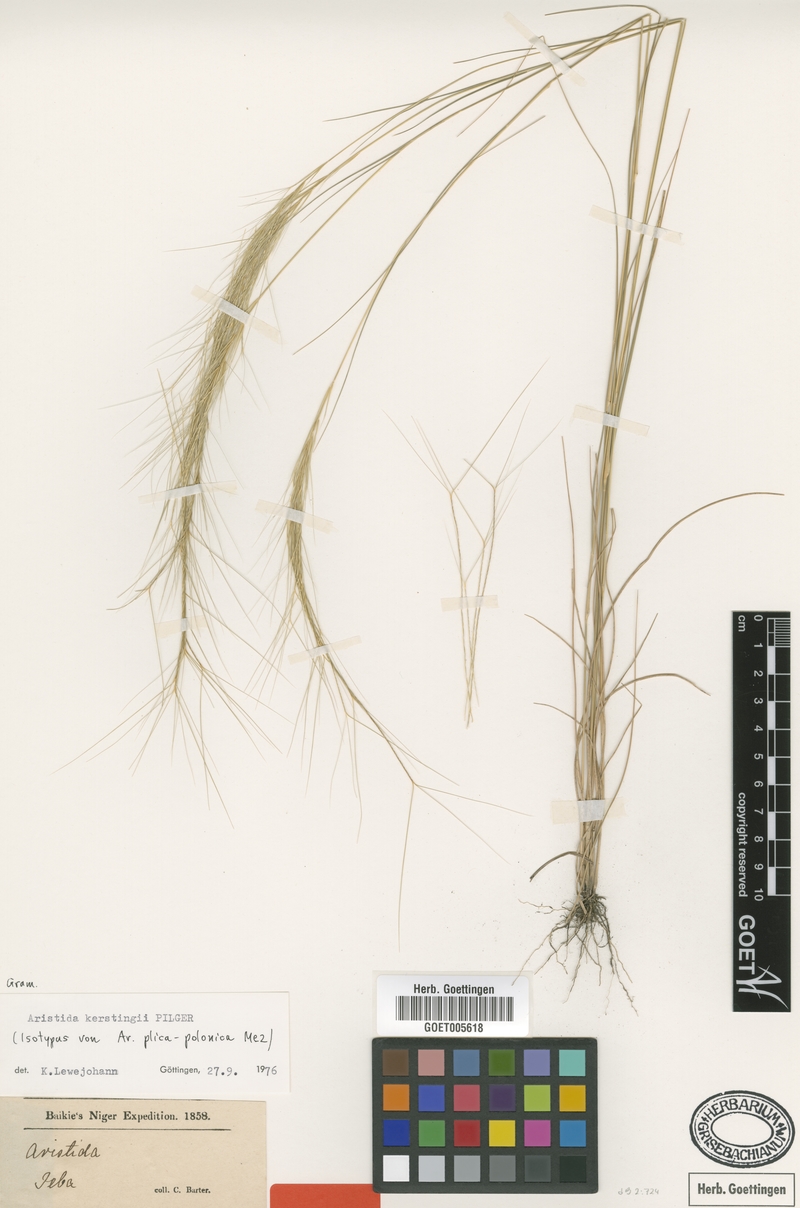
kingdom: Plantae
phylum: Tracheophyta
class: Liliopsida
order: Poales
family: Poaceae
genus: Aristida
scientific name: Aristida kerstingii
